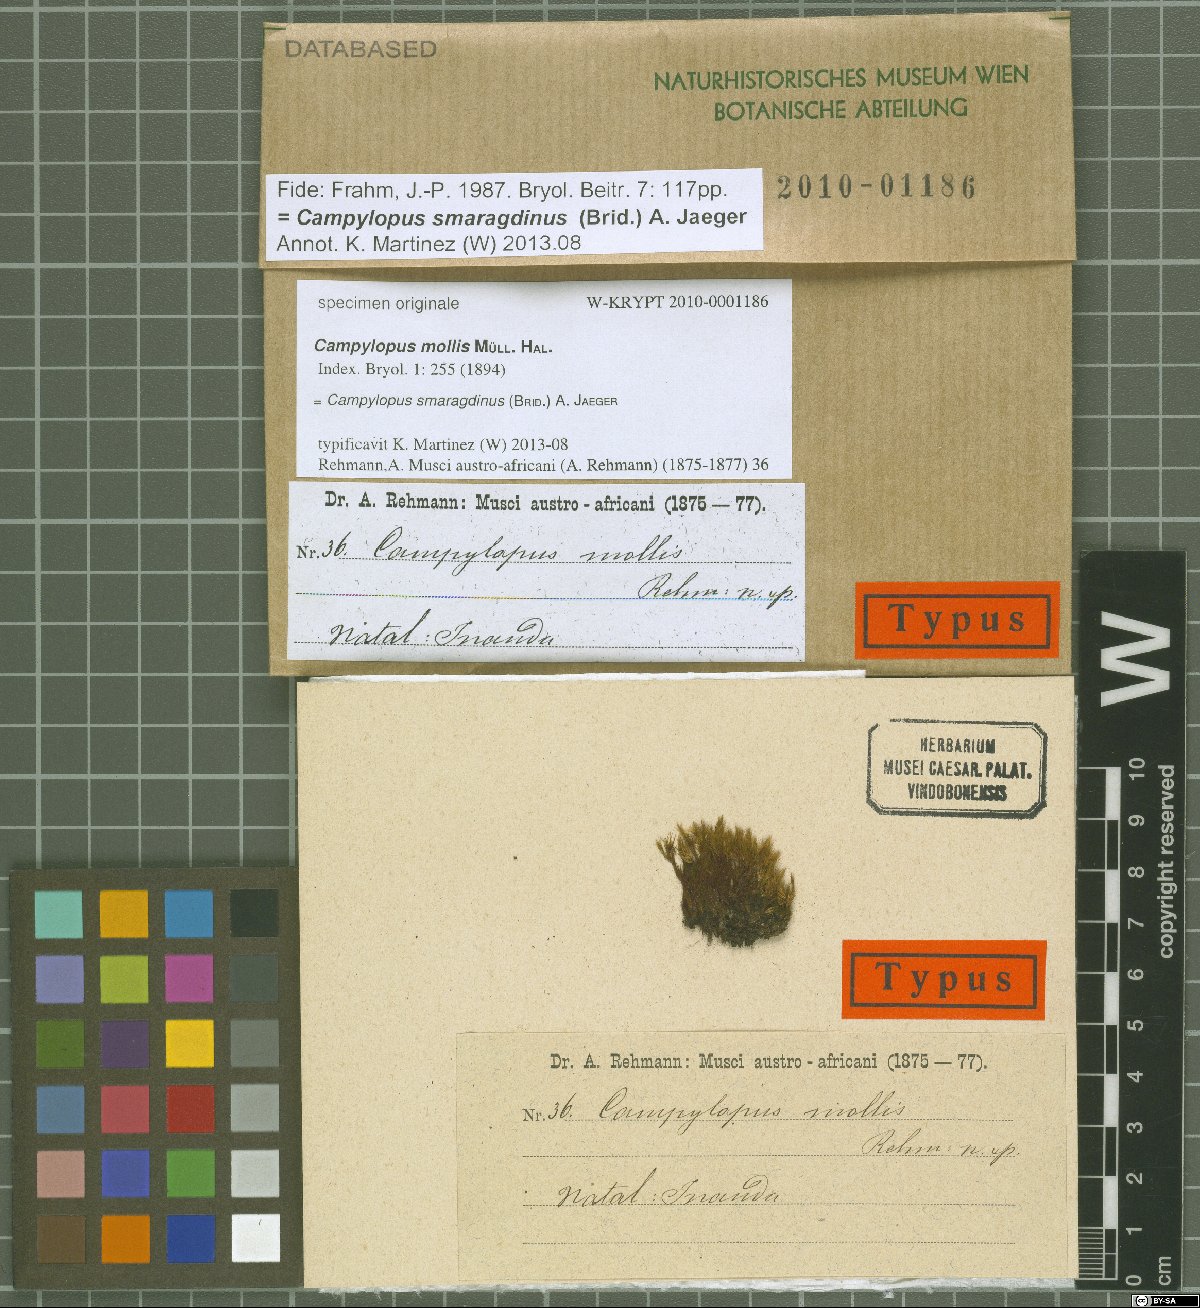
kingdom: Protozoa
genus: Campylopus
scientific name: Campylopus
